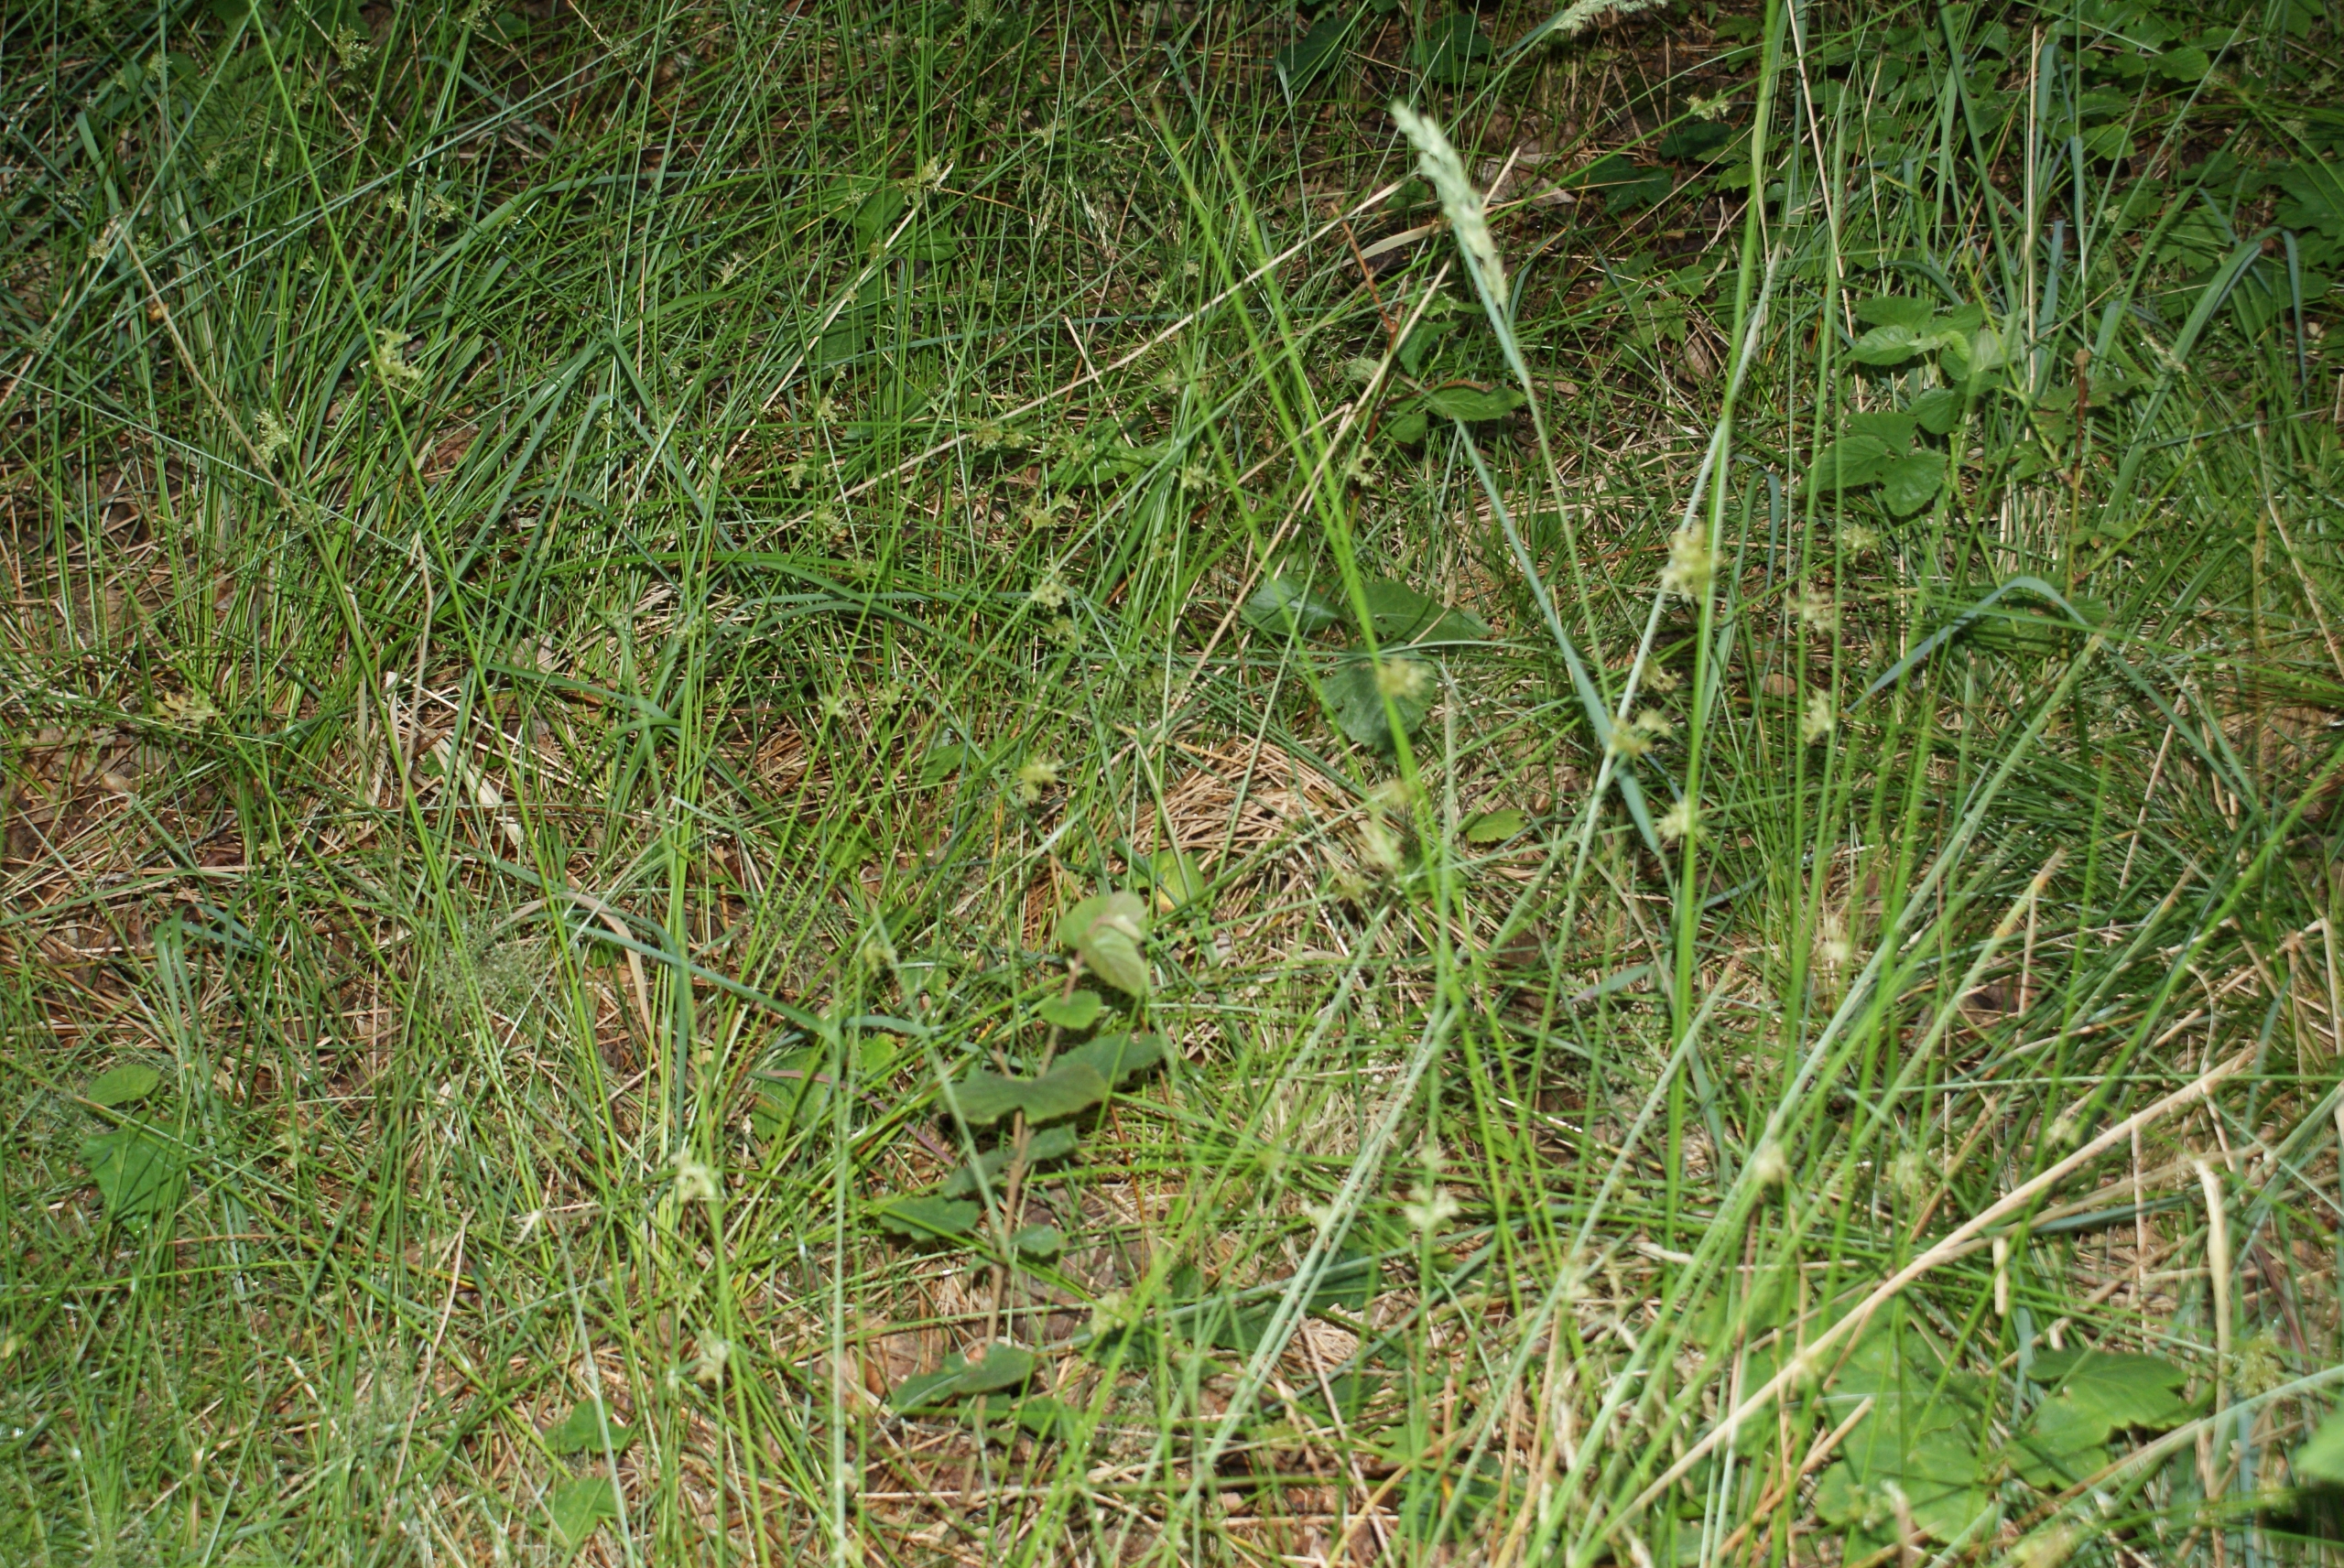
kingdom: Plantae
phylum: Tracheophyta
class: Liliopsida
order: Poales
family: Juncaceae
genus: Juncus
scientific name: Juncus effusus
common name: Lyse-siv
